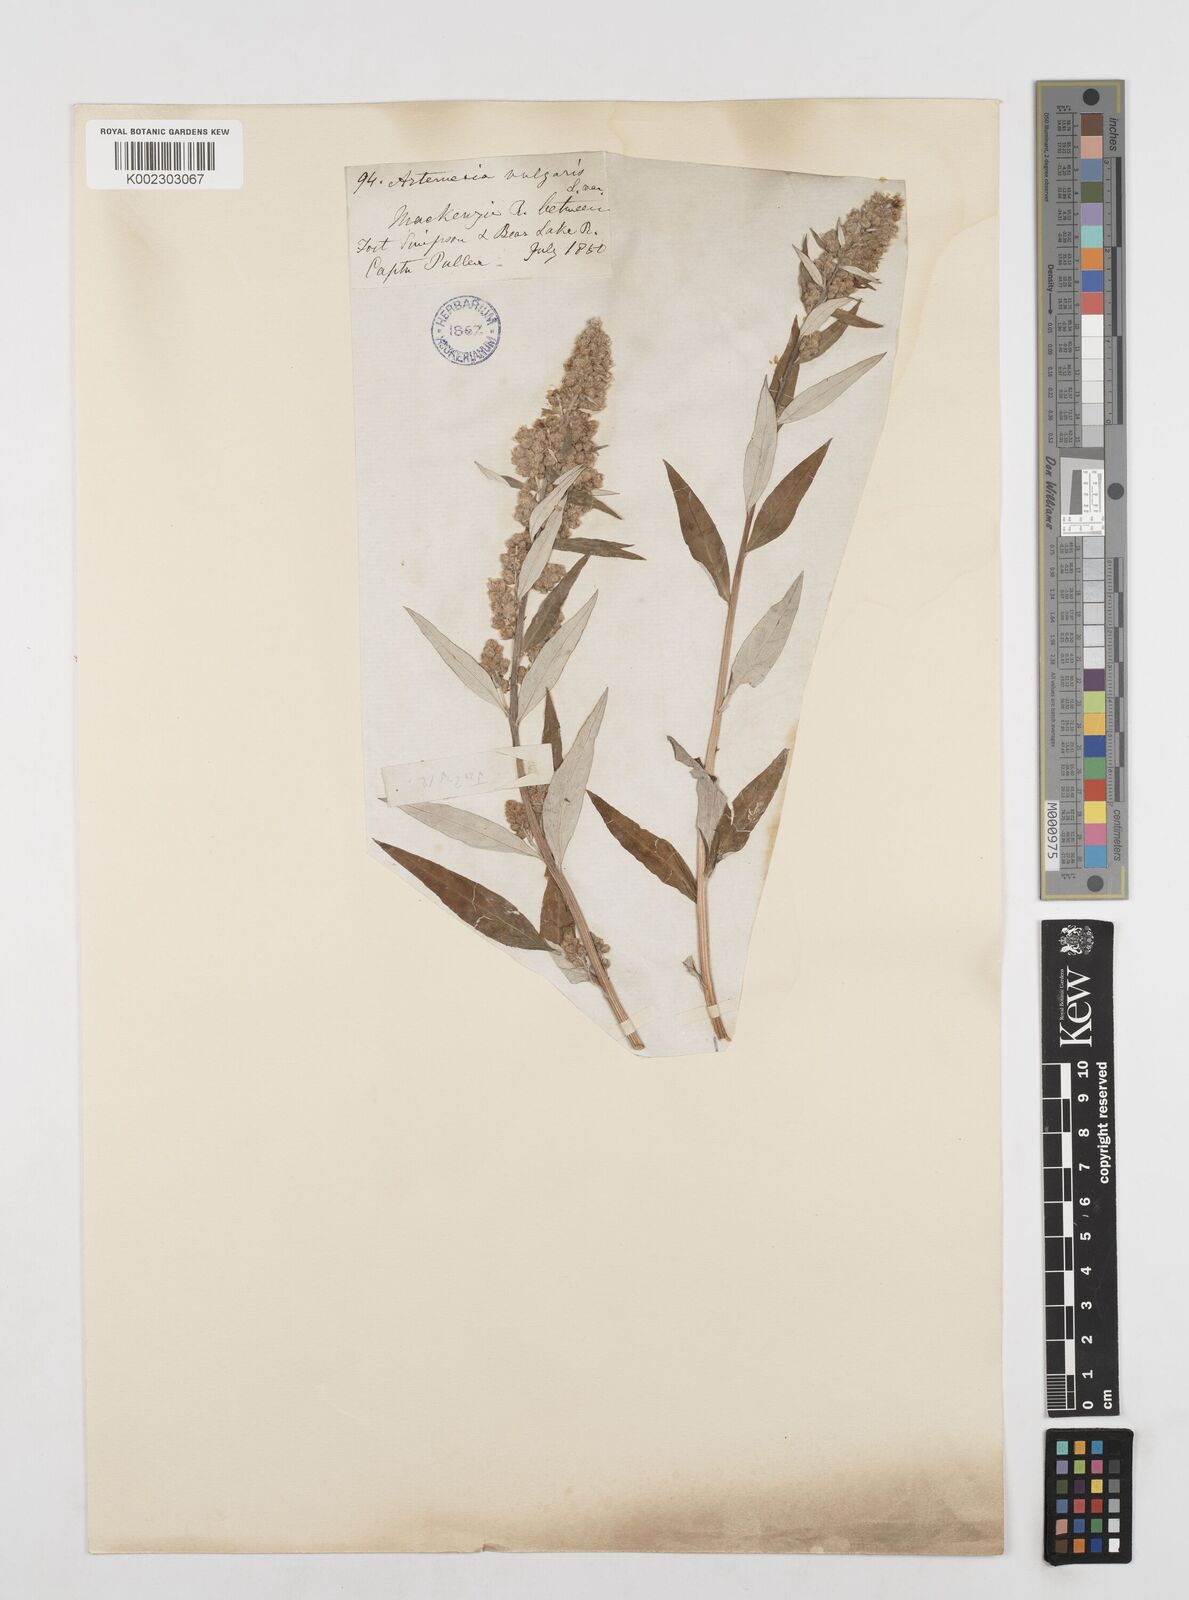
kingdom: Plantae
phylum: Tracheophyta
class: Magnoliopsida
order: Asterales
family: Asteraceae
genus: Artemisia
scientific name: Artemisia tilesii
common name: Aleutian mugwort
